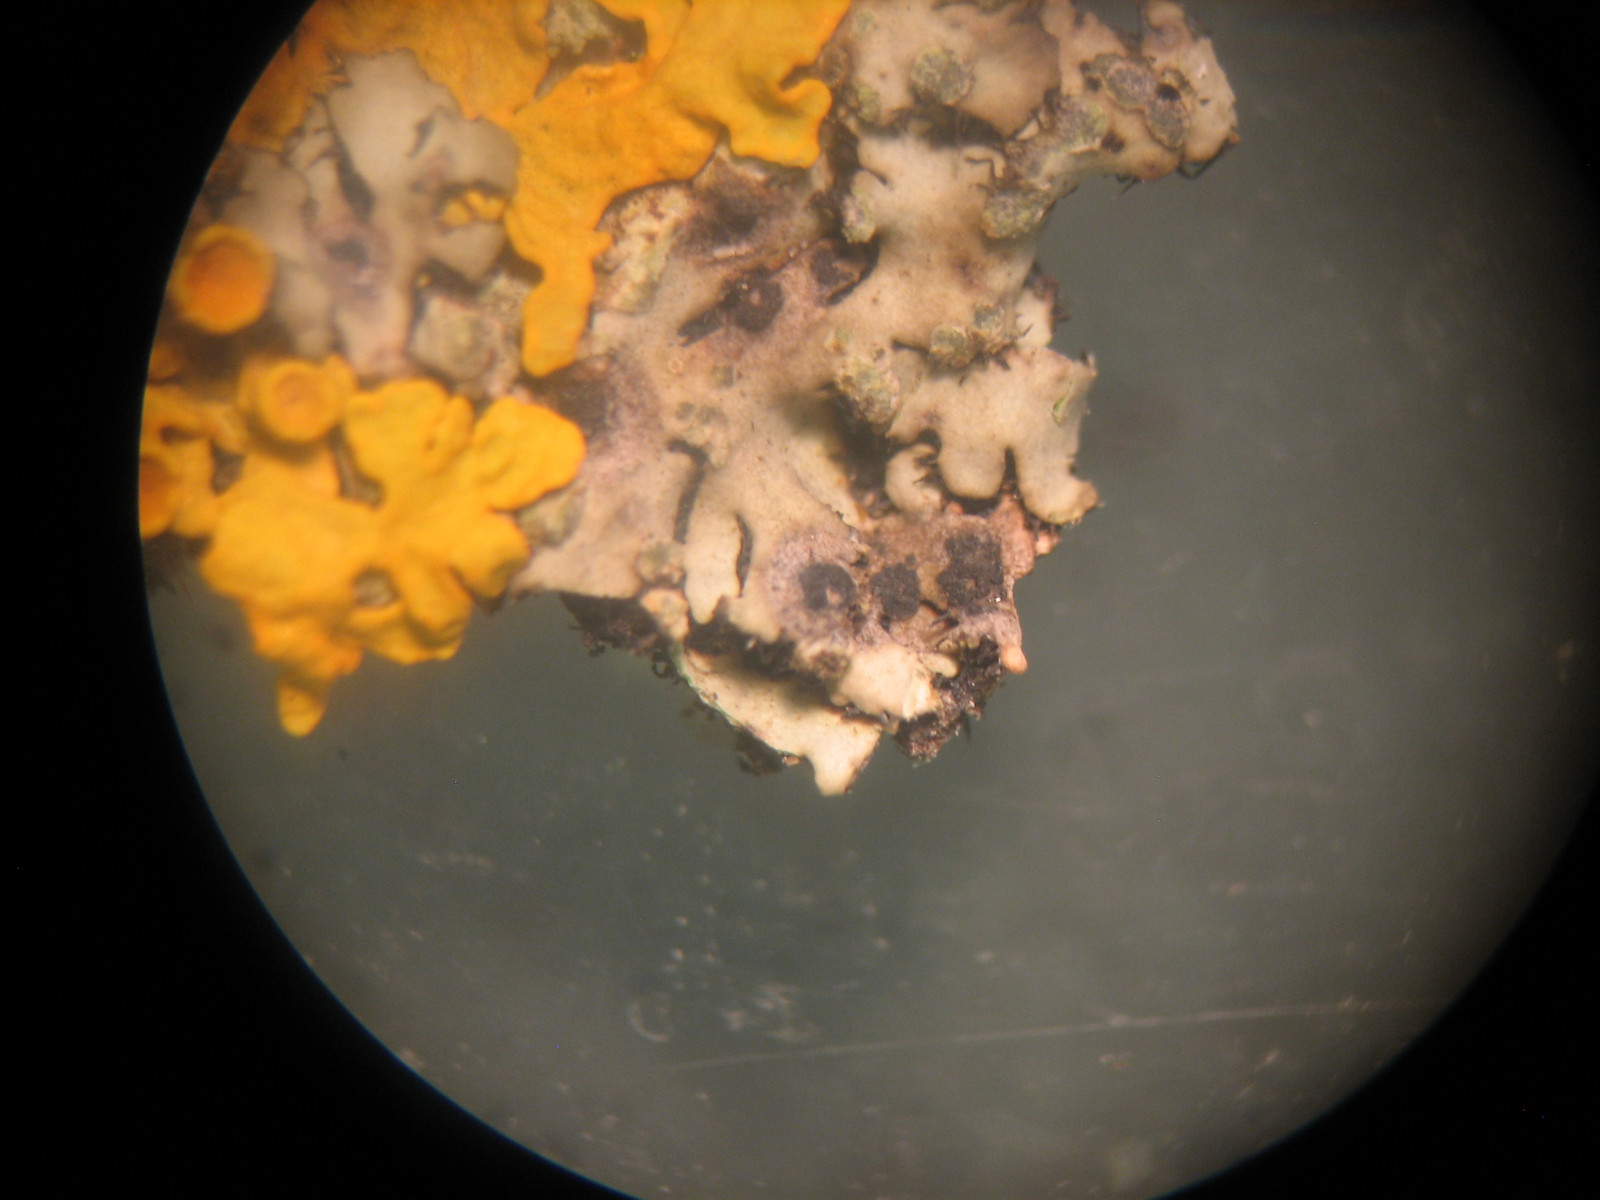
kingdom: Fungi
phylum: Ascomycota
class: Arthoniomycetes
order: Arthoniales
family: Arthoniaceae
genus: Bryostigma
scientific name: Bryostigma phaeophysciae
